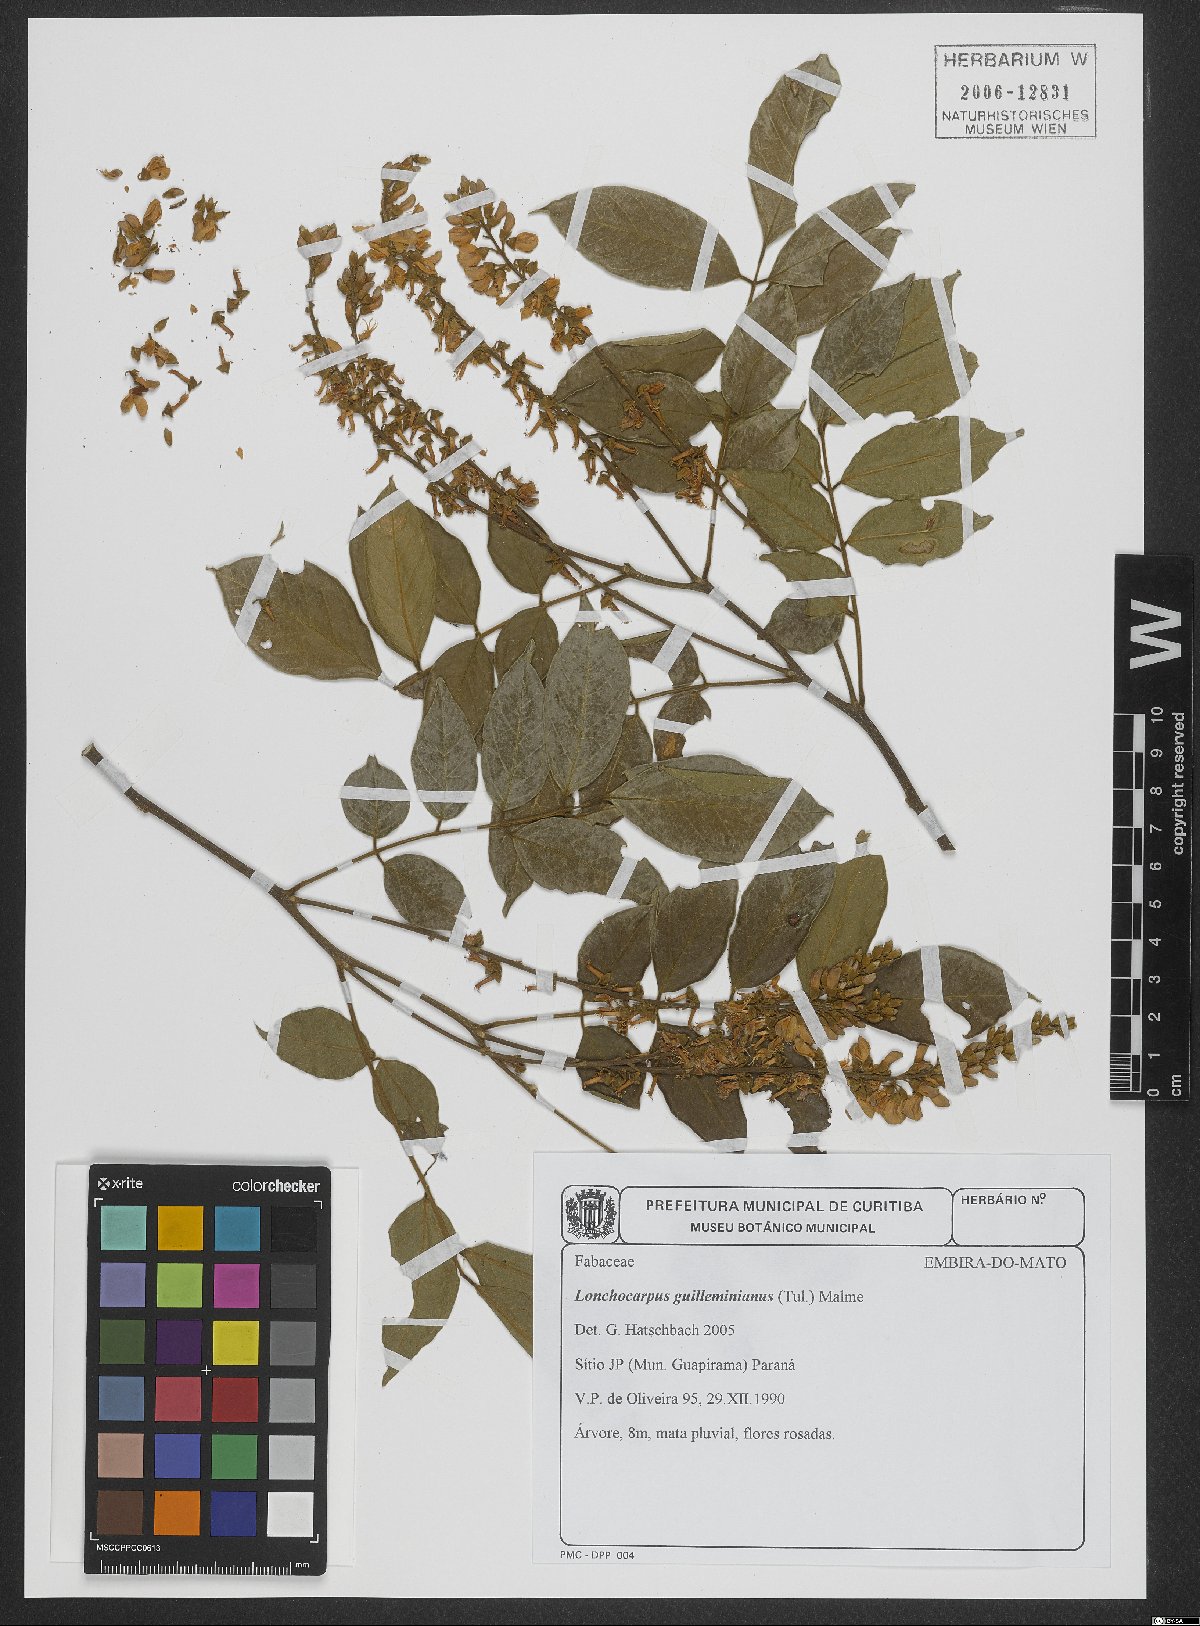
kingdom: Plantae
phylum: Tracheophyta
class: Magnoliopsida
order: Fabales
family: Fabaceae
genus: Lonchocarpus
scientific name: Lonchocarpus cultratus
